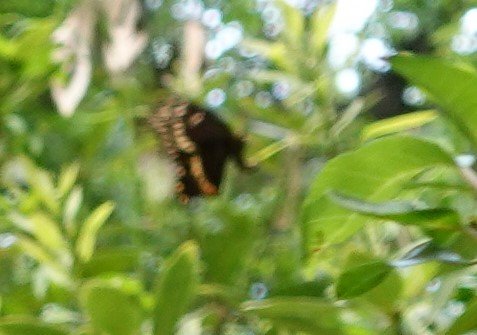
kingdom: Animalia
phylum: Arthropoda
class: Insecta
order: Lepidoptera
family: Papilionidae
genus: Pterourus
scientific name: Pterourus palamedes
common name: Palamedes Swallowtail
